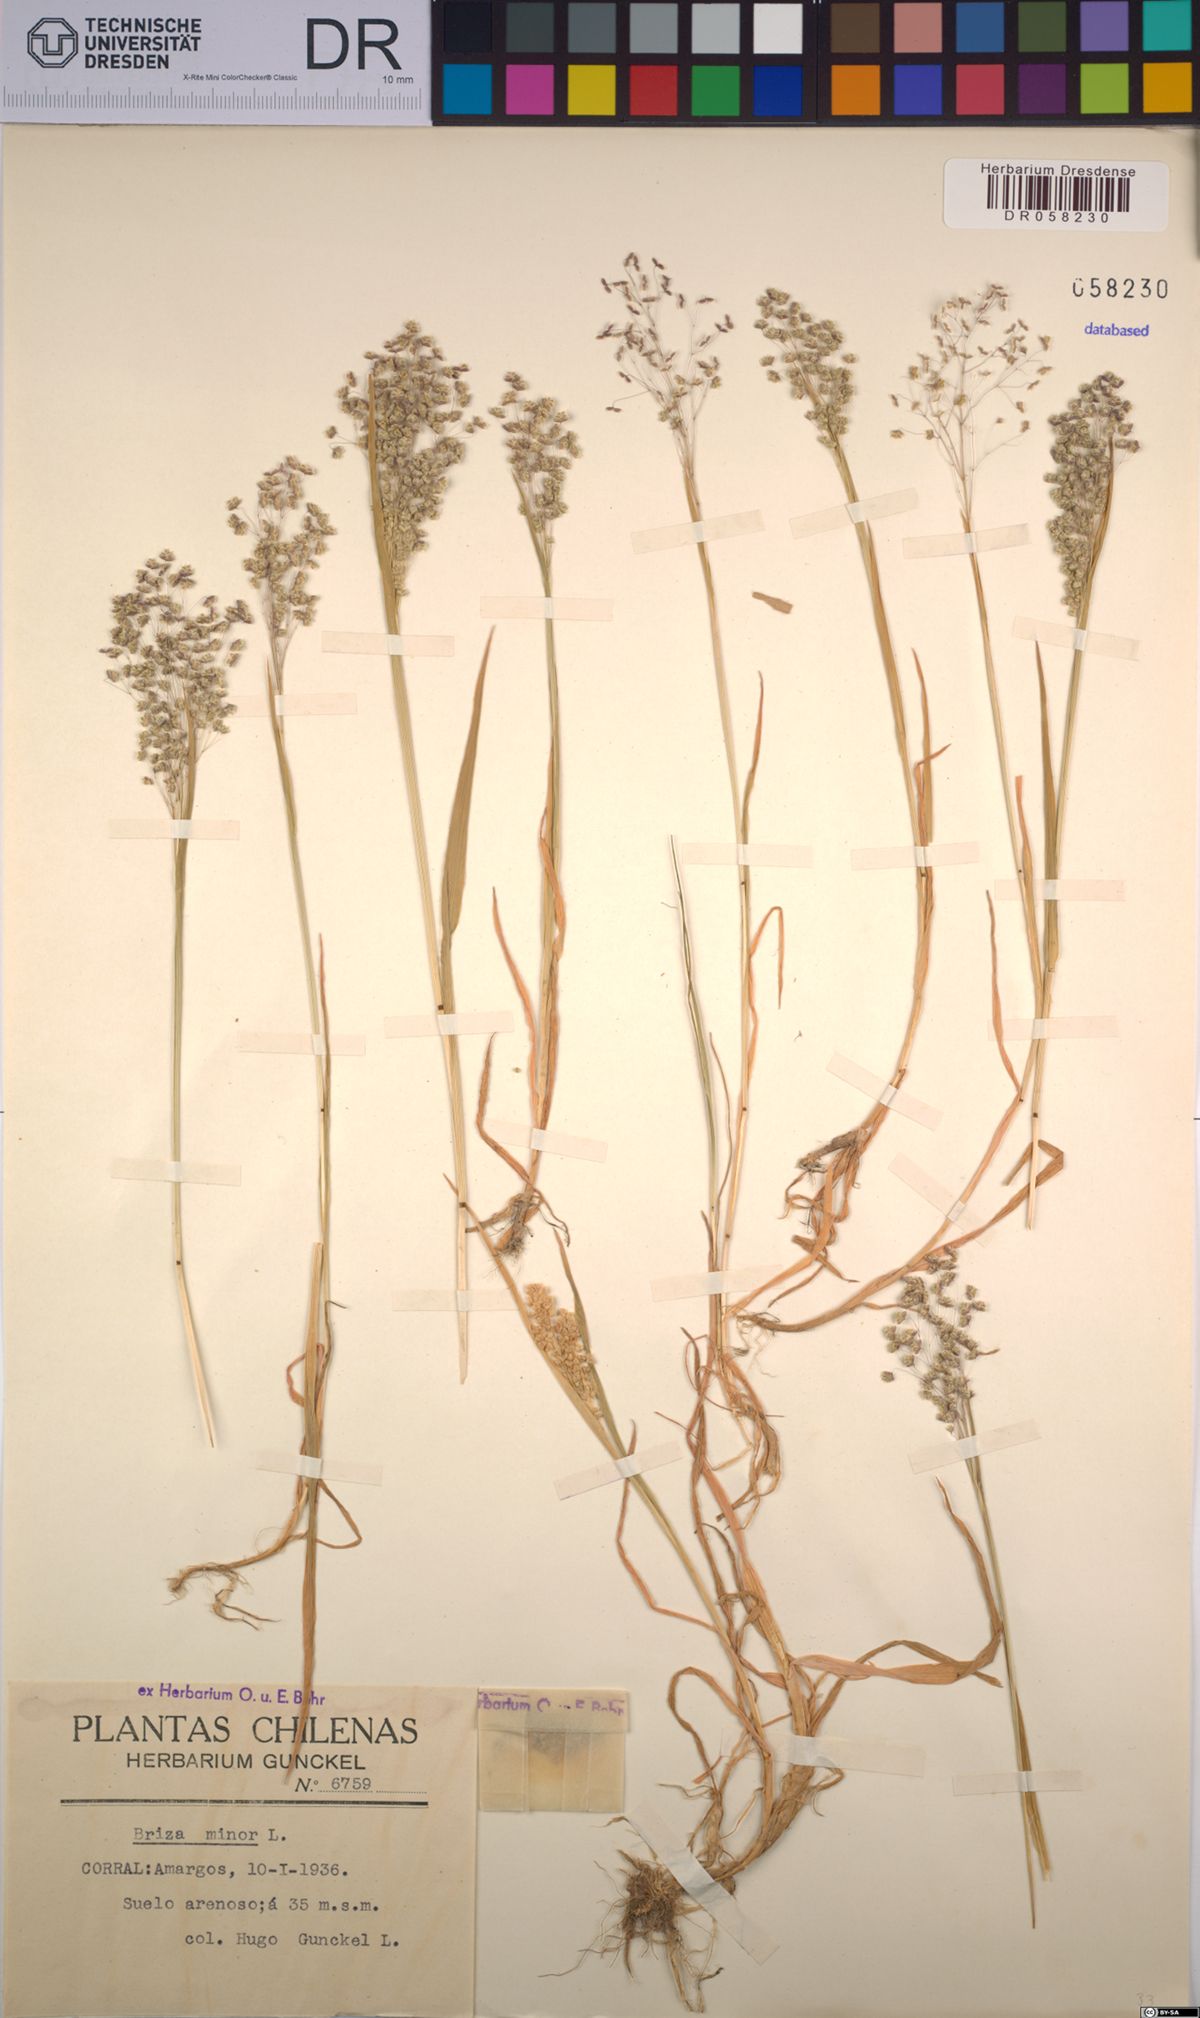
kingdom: Plantae
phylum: Tracheophyta
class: Liliopsida
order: Poales
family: Poaceae
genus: Briza
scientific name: Briza minor
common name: Lesser quaking-grass
